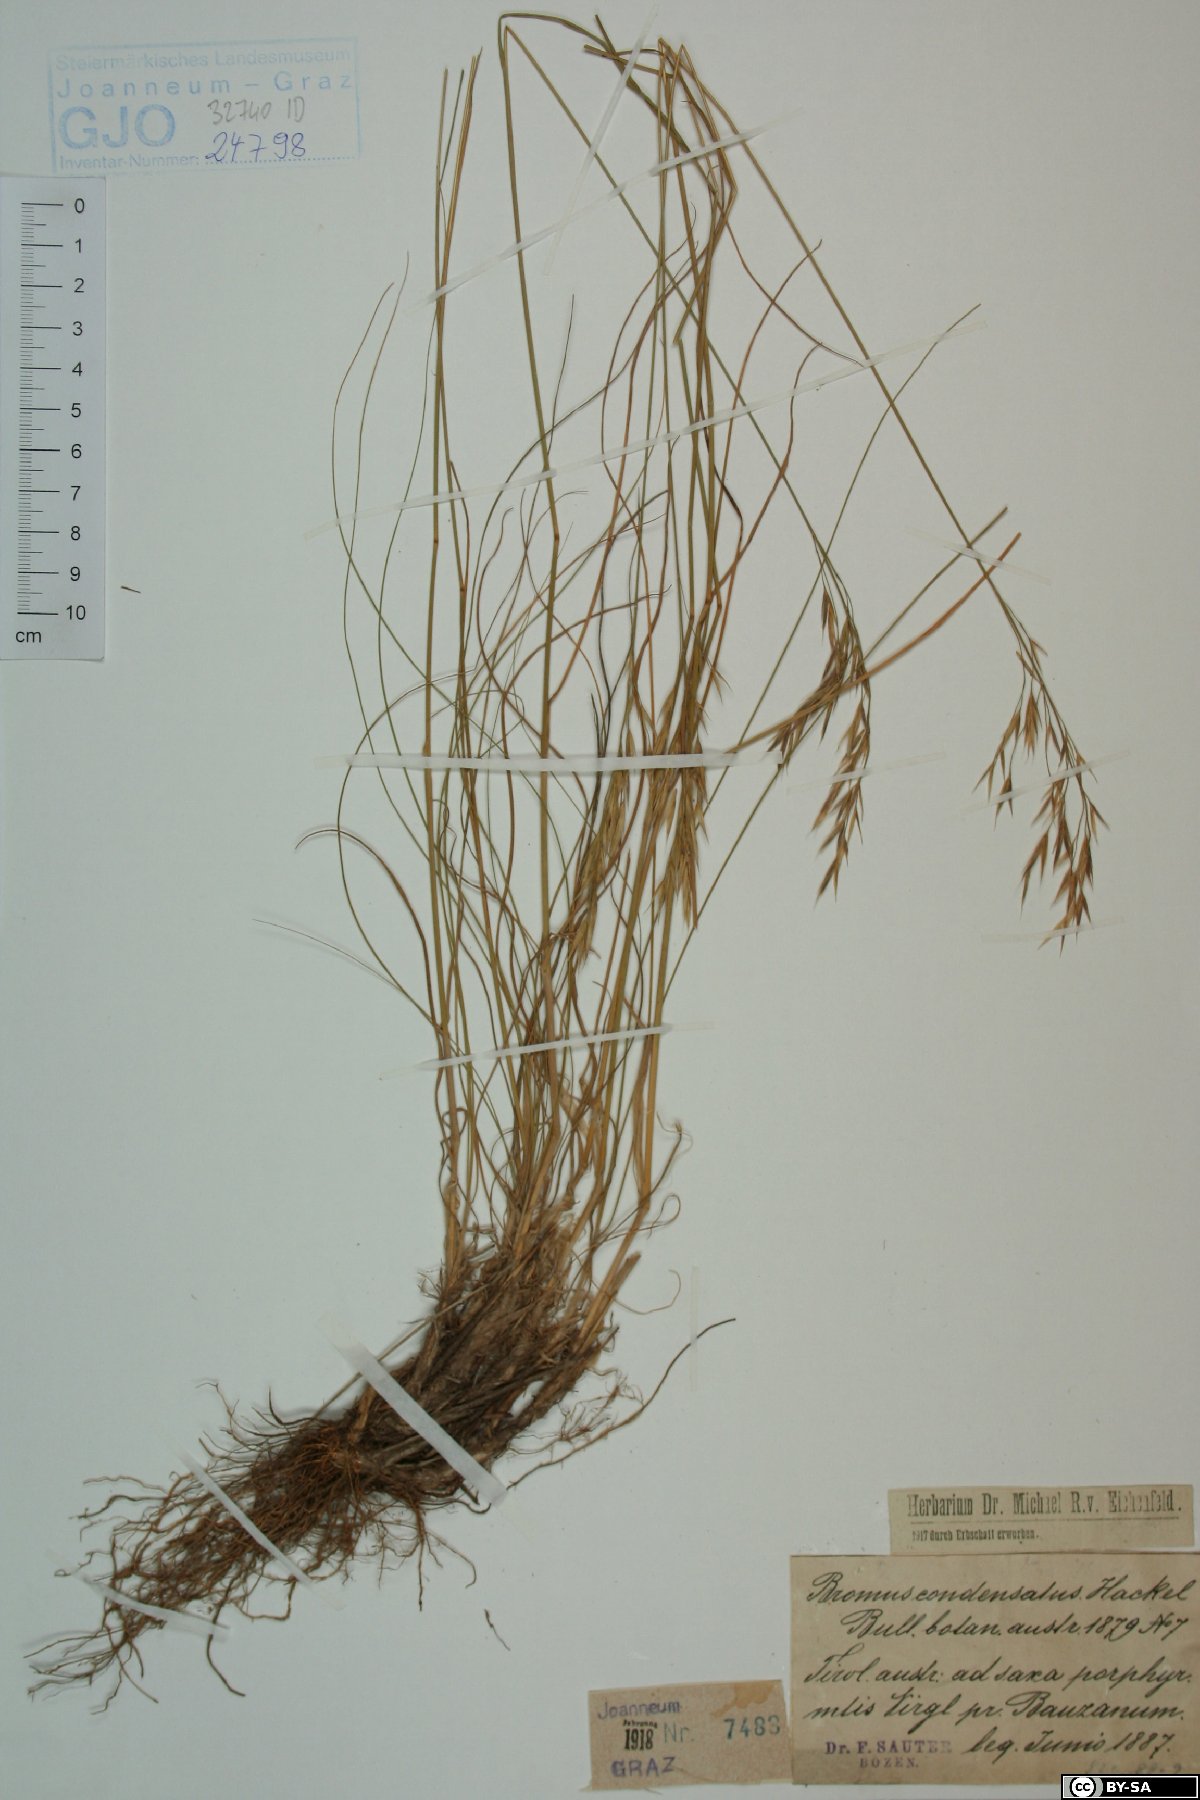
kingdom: Plantae
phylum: Tracheophyta
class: Liliopsida
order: Poales
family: Poaceae
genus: Bromus
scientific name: Bromus condensatus
